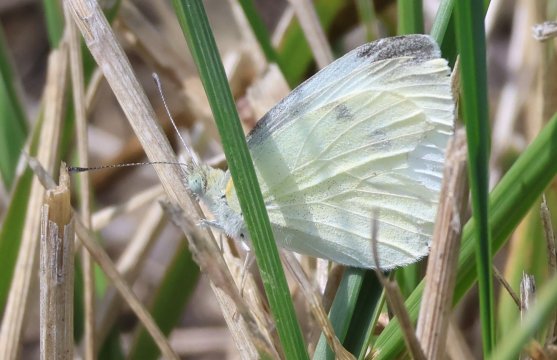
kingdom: Animalia
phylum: Arthropoda
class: Insecta
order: Lepidoptera
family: Pieridae
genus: Pieris
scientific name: Pieris rapae
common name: Cabbage White
